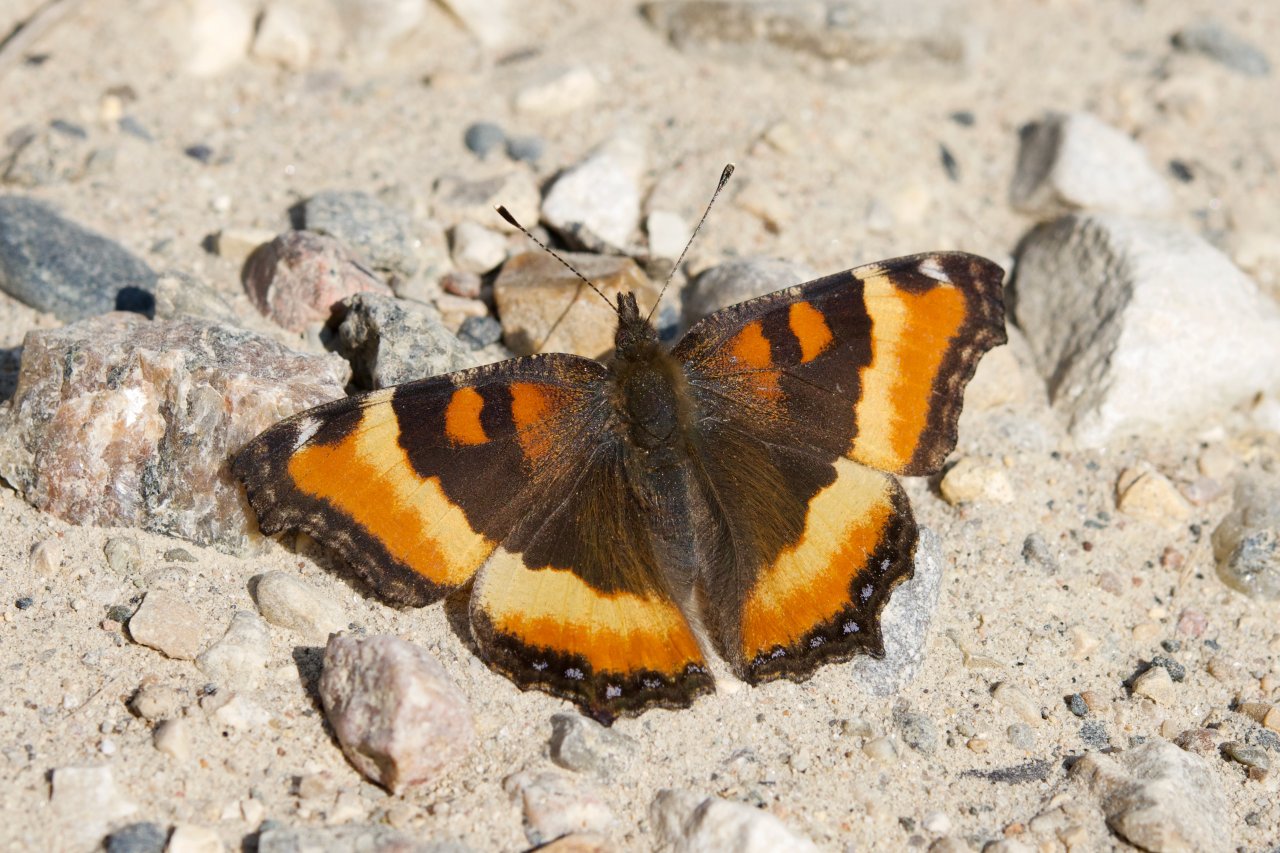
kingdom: Animalia
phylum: Arthropoda
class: Insecta
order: Lepidoptera
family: Nymphalidae
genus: Aglais
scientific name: Aglais milberti
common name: Milbert's Tortoiseshell
